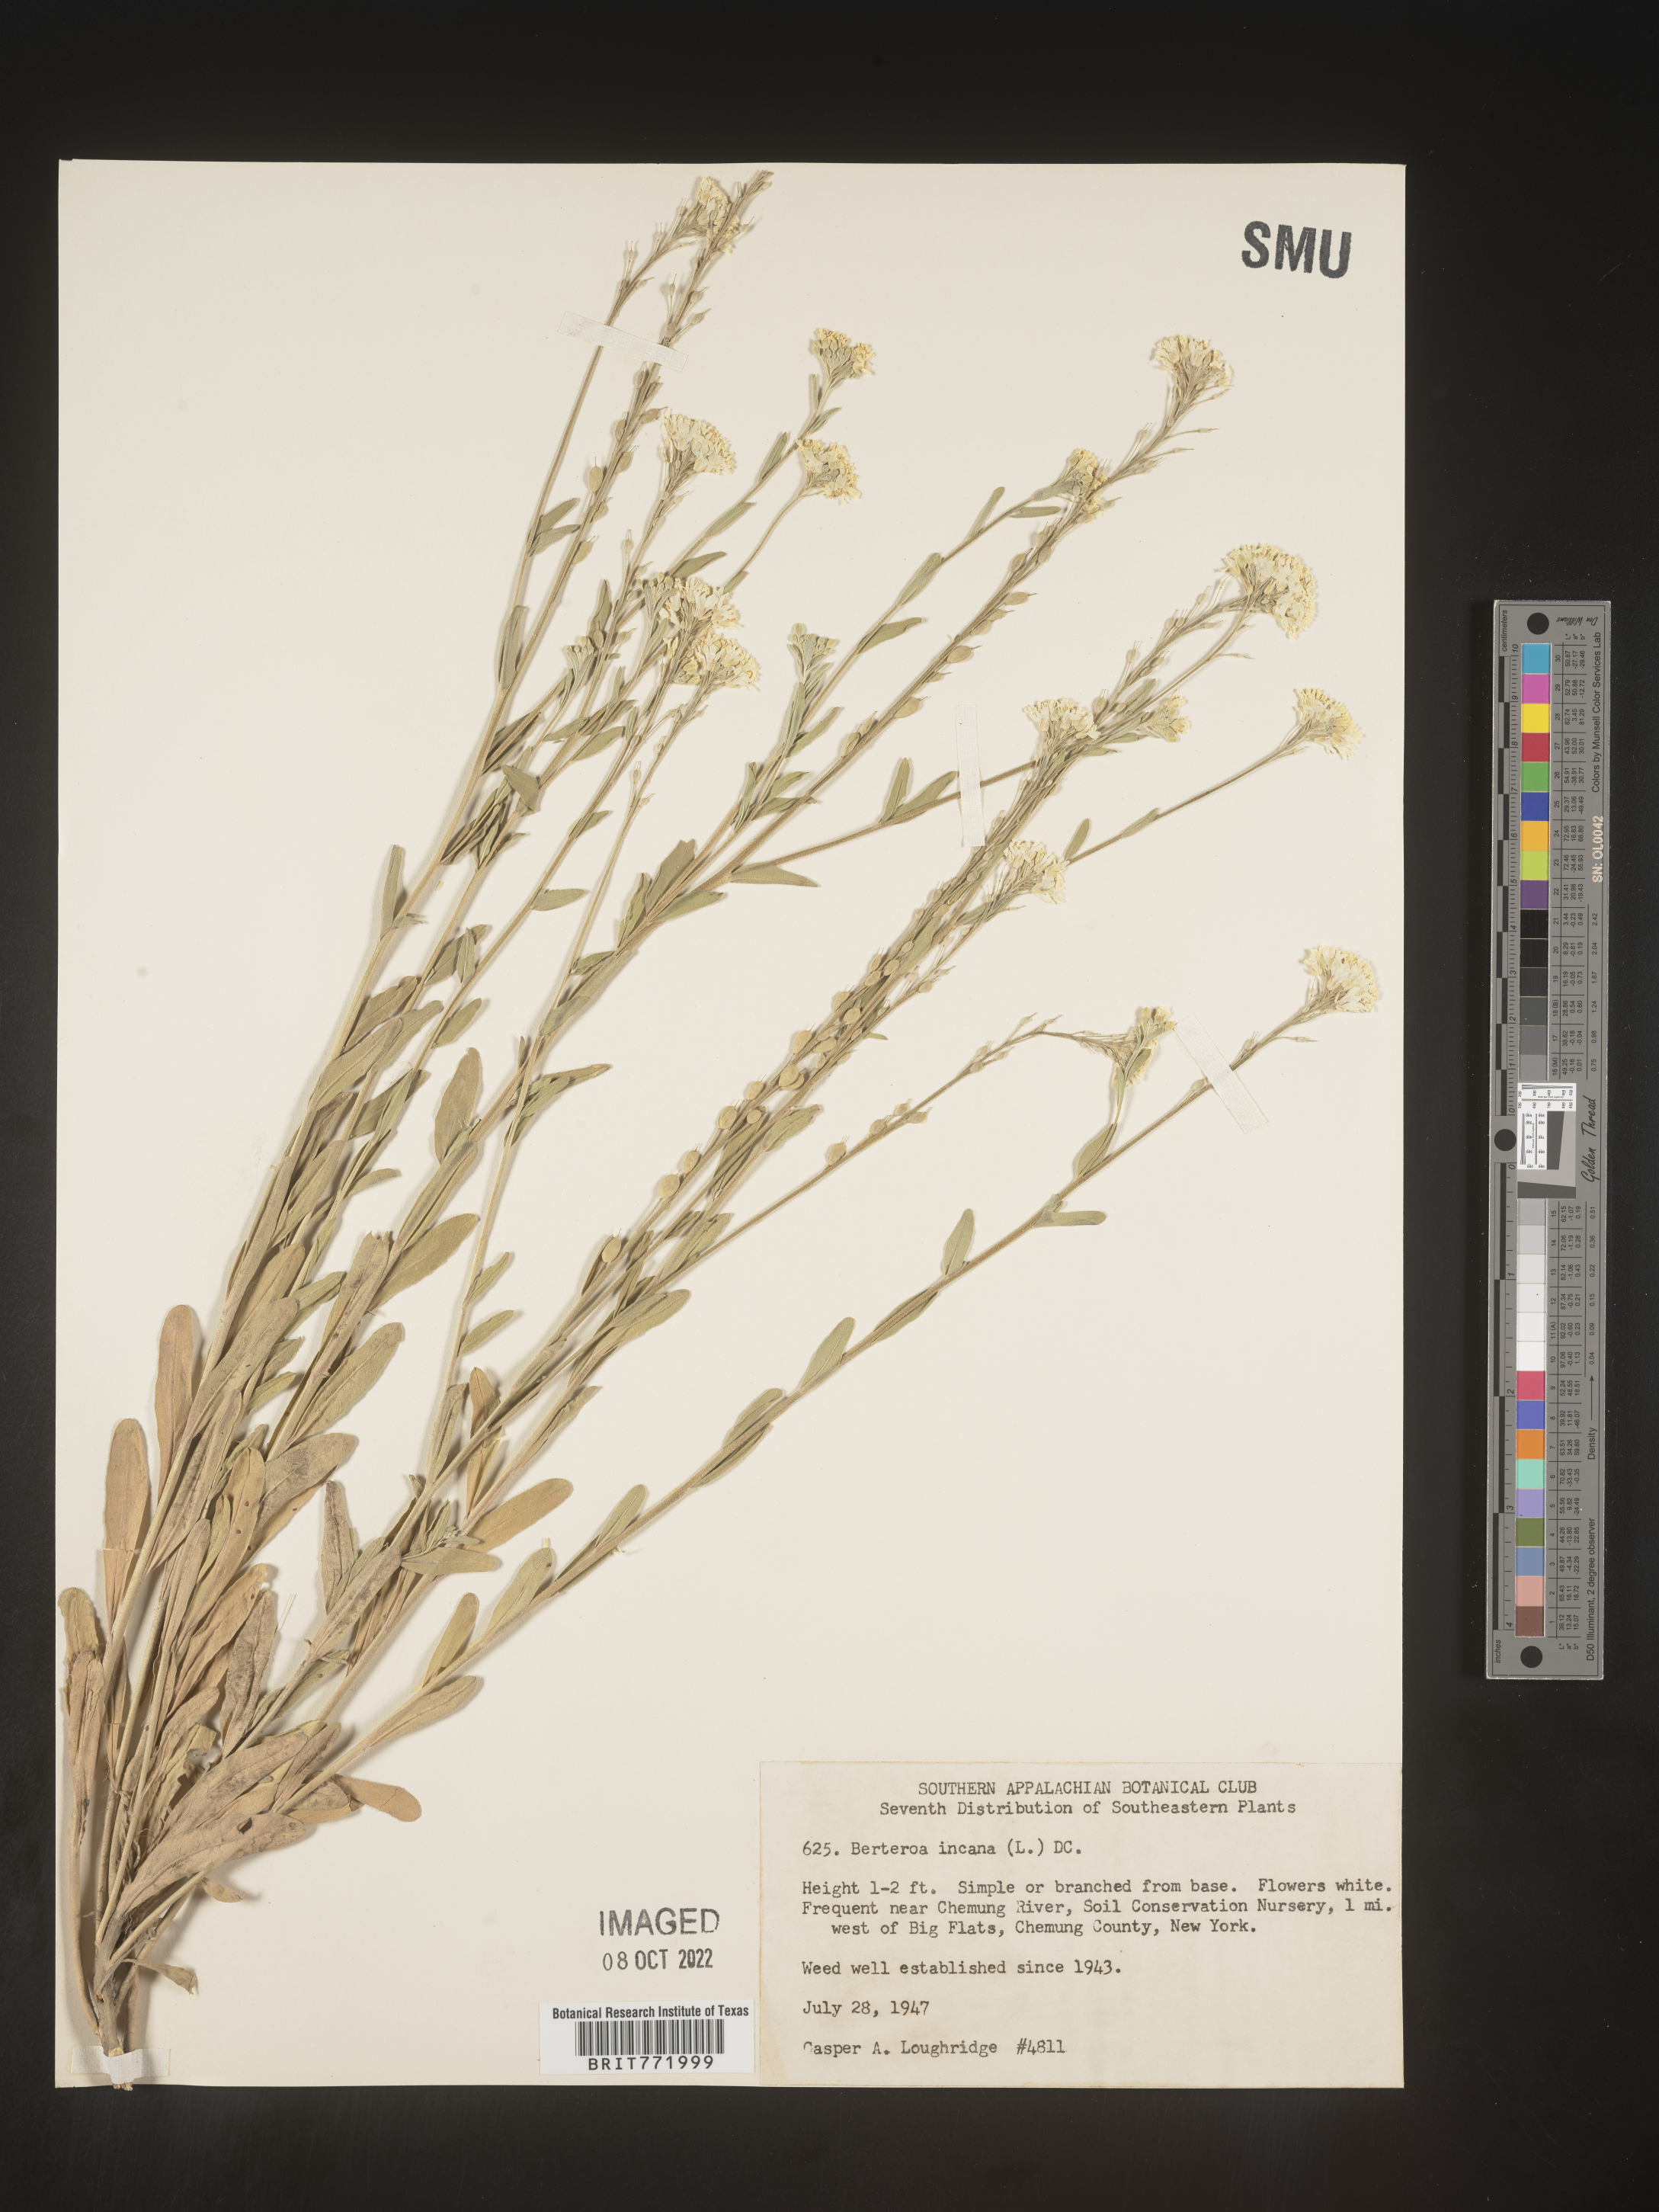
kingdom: Plantae
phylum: Tracheophyta
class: Magnoliopsida
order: Brassicales
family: Brassicaceae
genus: Berteroa
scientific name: Berteroa incana
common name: Hoary alison
